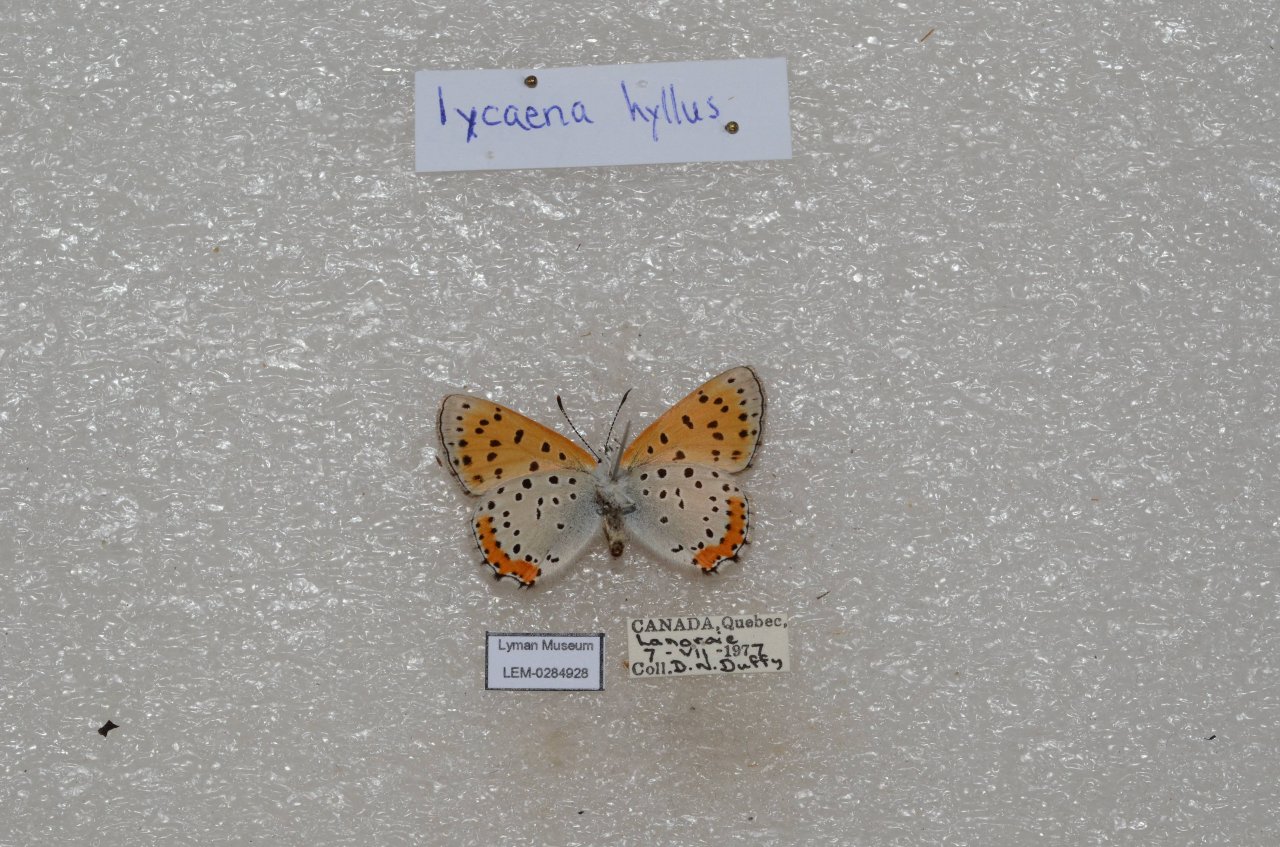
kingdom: Animalia
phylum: Arthropoda
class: Insecta
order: Lepidoptera
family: Sesiidae
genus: Sesia
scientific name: Sesia Lycaena hyllus
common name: Bronze Copper
